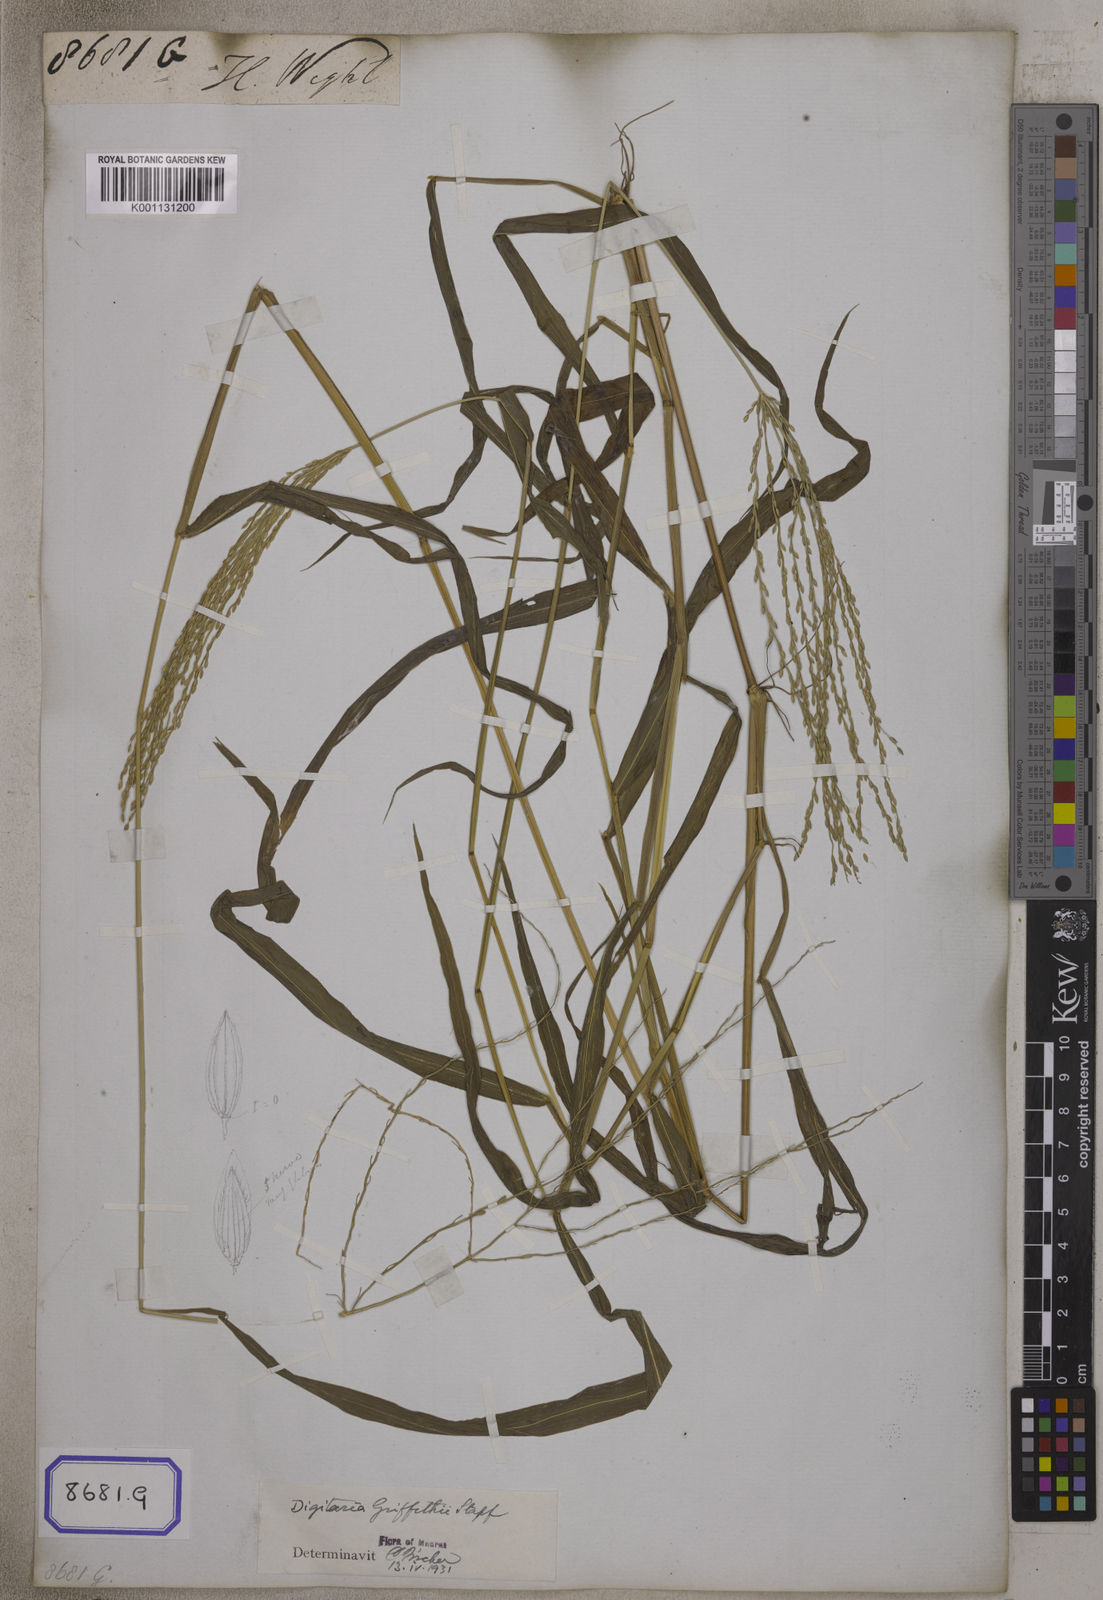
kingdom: Plantae
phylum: Tracheophyta
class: Liliopsida
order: Poales
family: Poaceae
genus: Digitaria
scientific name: Digitaria sanguinalis
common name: Hairy crabgrass
